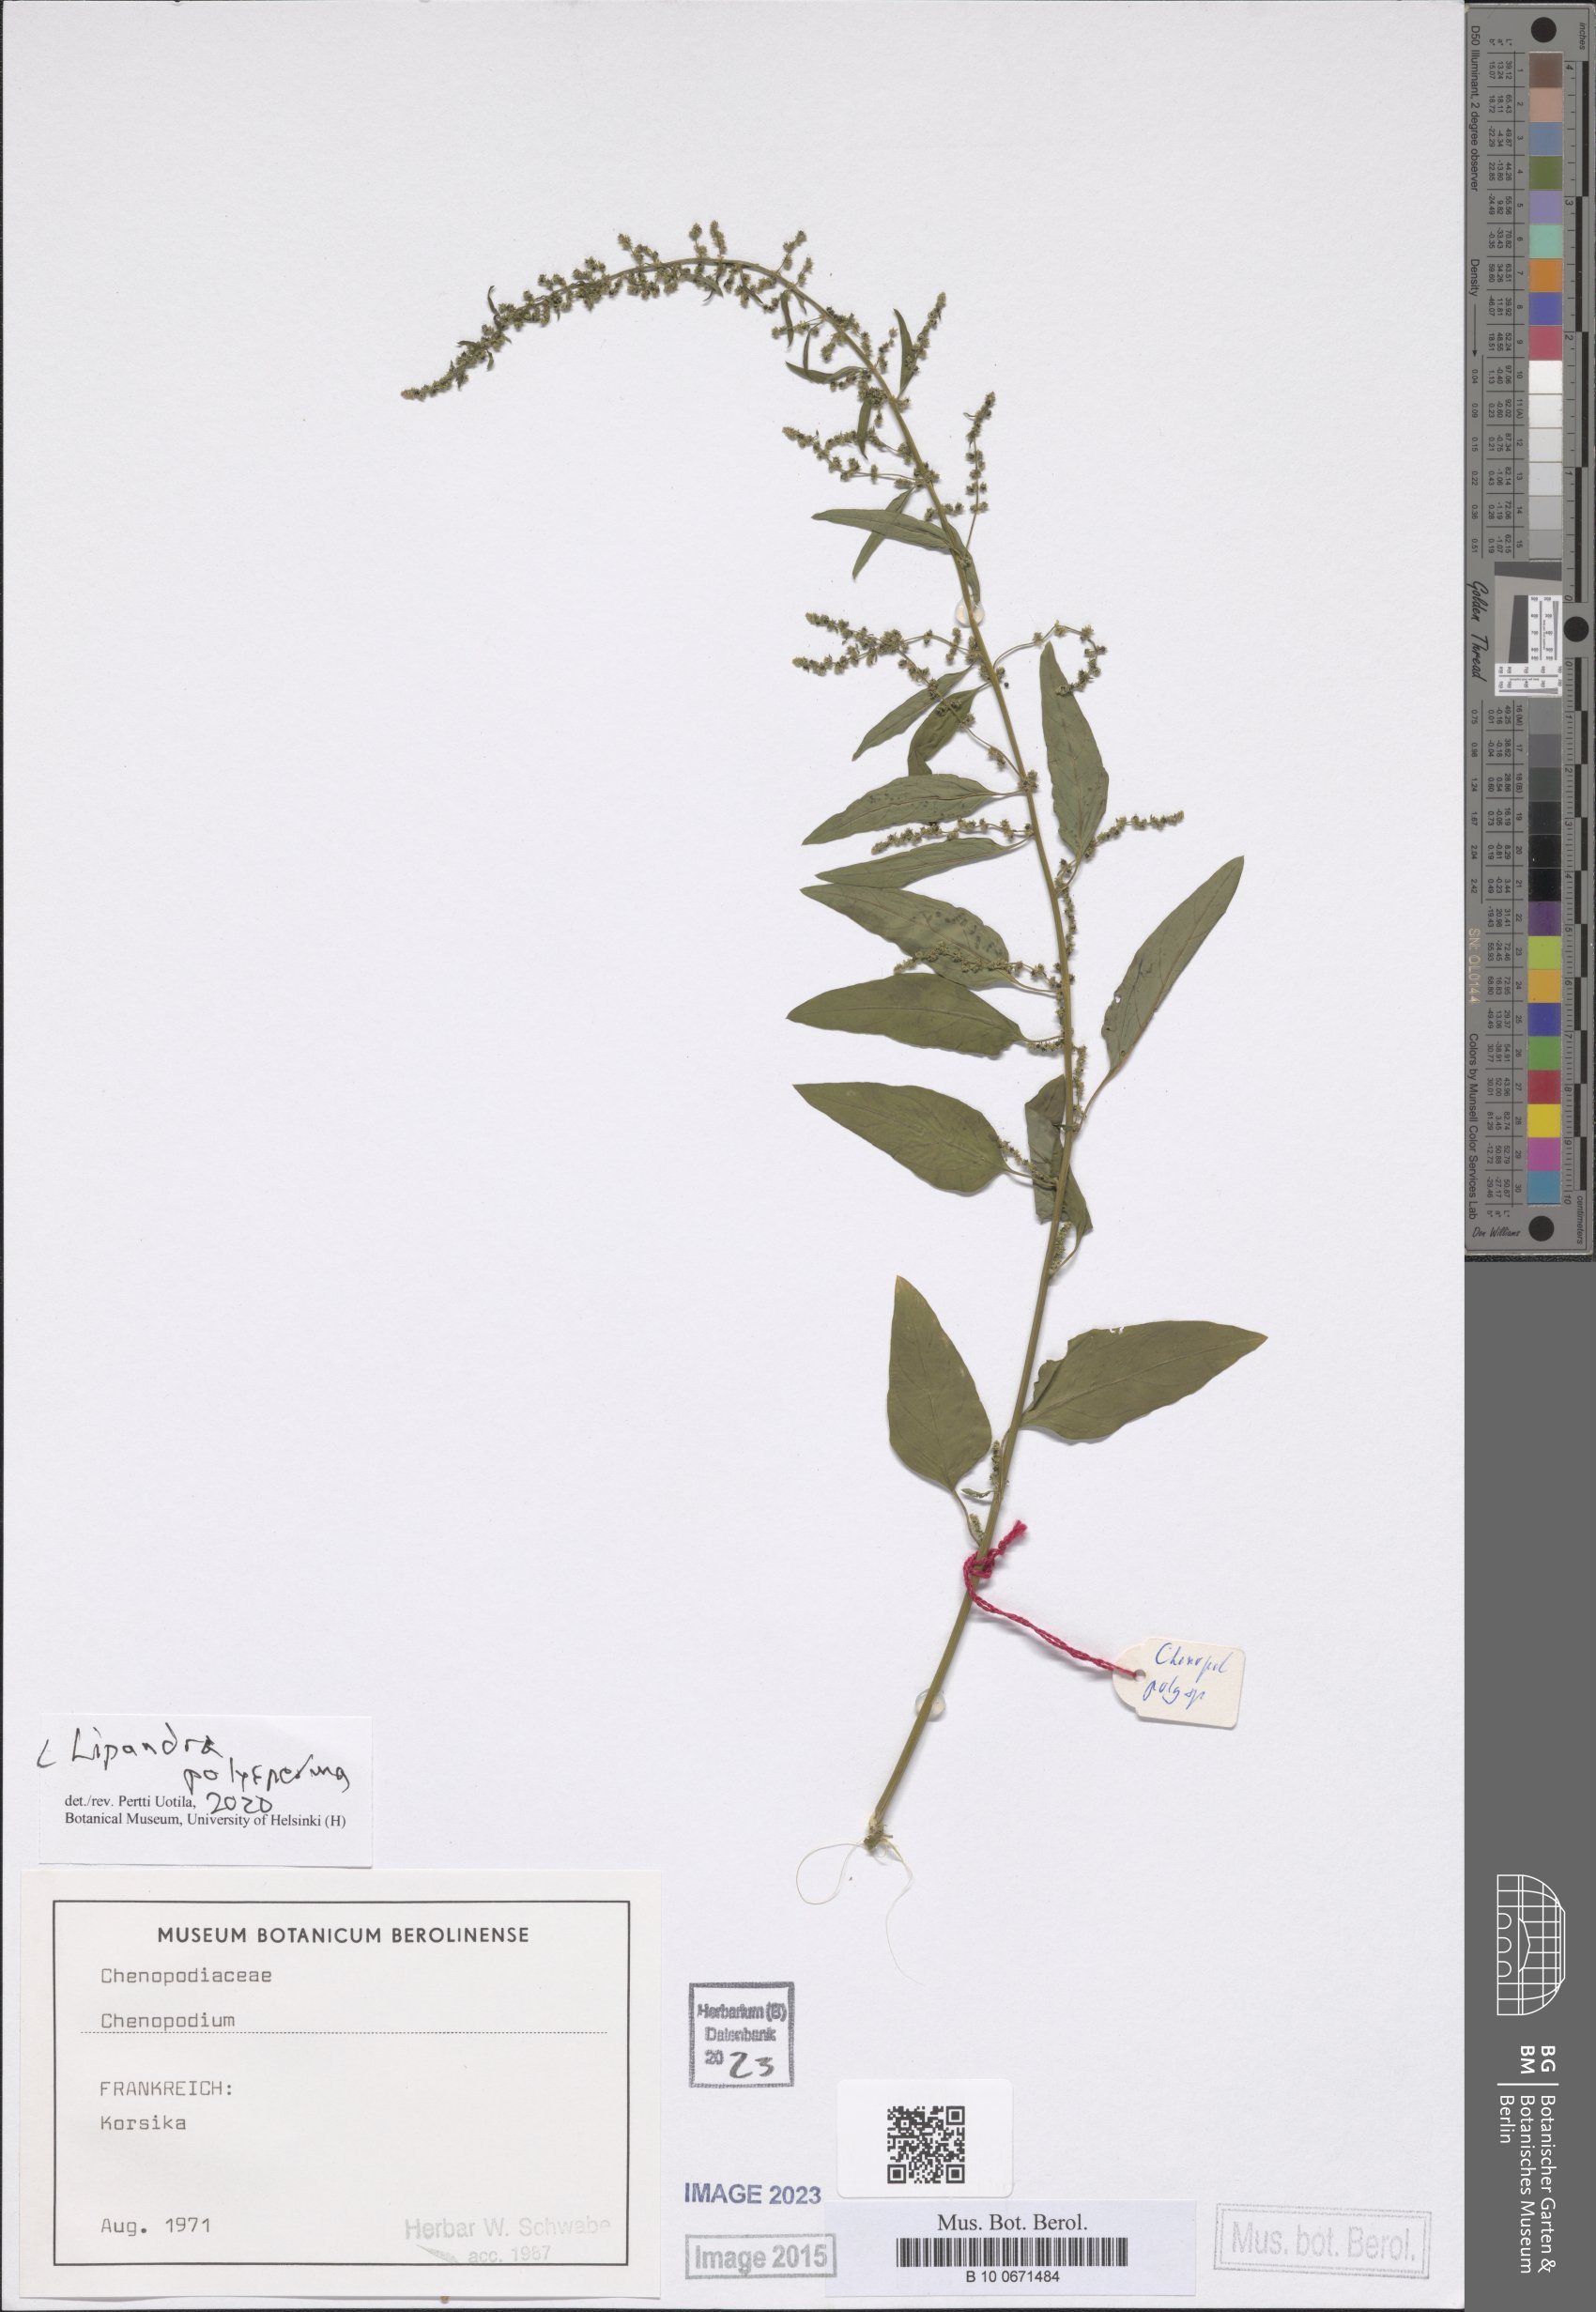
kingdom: Plantae
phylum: Tracheophyta
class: Magnoliopsida
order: Caryophyllales
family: Amaranthaceae
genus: Lipandra
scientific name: Lipandra polysperma
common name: Many-seed goosefoot
